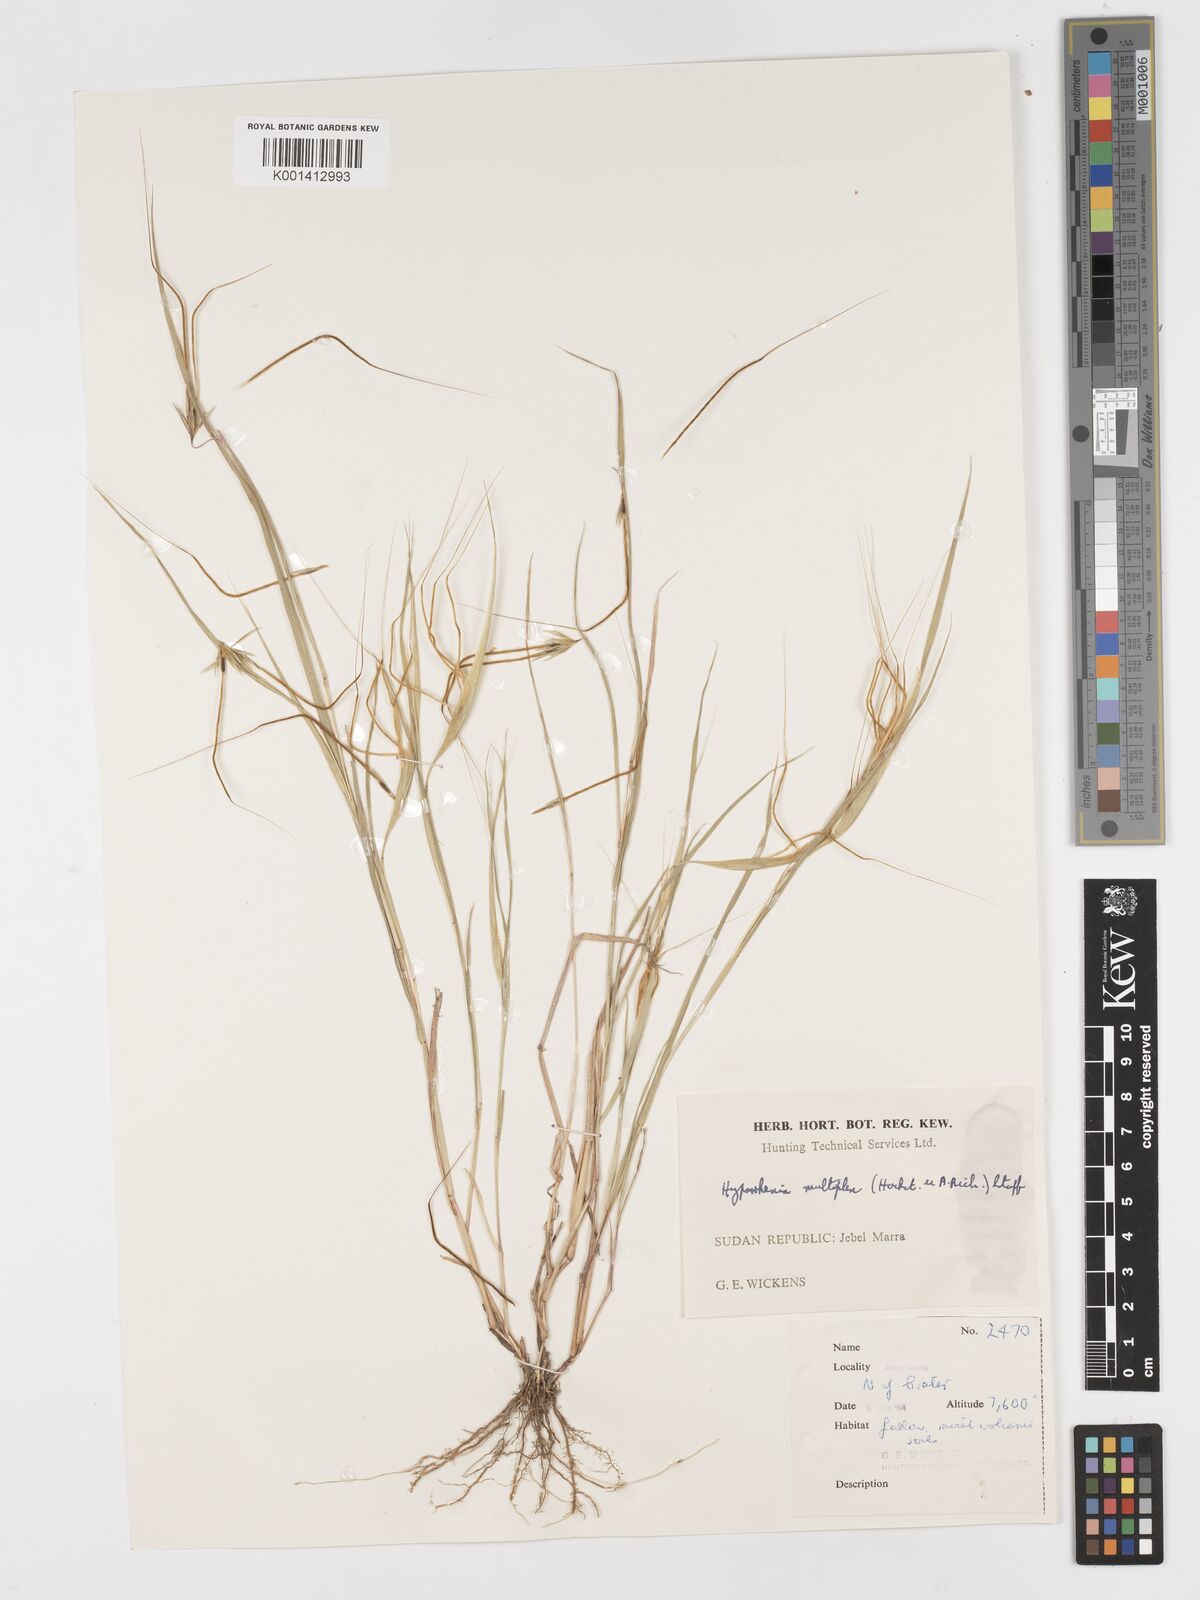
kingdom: Plantae
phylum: Tracheophyta
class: Liliopsida
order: Poales
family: Poaceae
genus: Hyparrhenia
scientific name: Hyparrhenia multiplex
